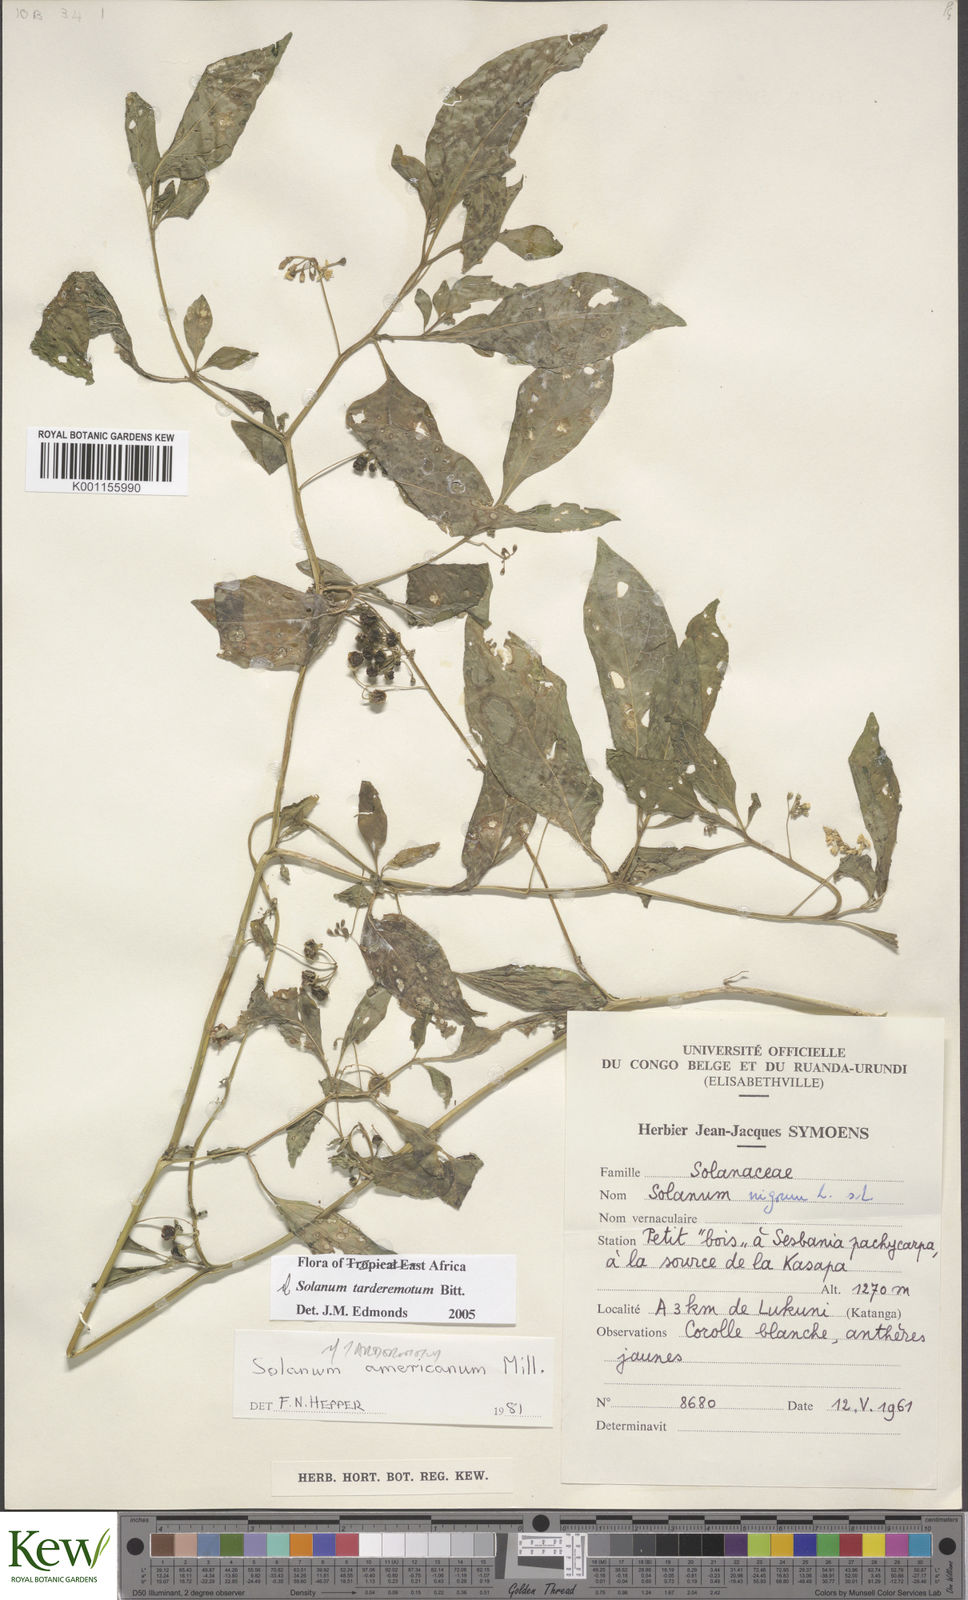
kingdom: Plantae
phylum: Tracheophyta
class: Magnoliopsida
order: Solanales
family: Solanaceae
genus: Solanum
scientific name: Solanum tarderemotum
